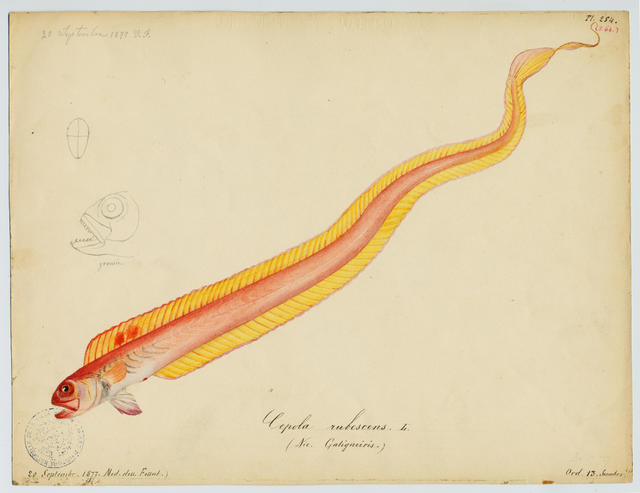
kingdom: Animalia
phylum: Chordata
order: Perciformes
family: Cepolidae
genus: Cepola
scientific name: Cepola macrophthalma
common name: Red bandfish
